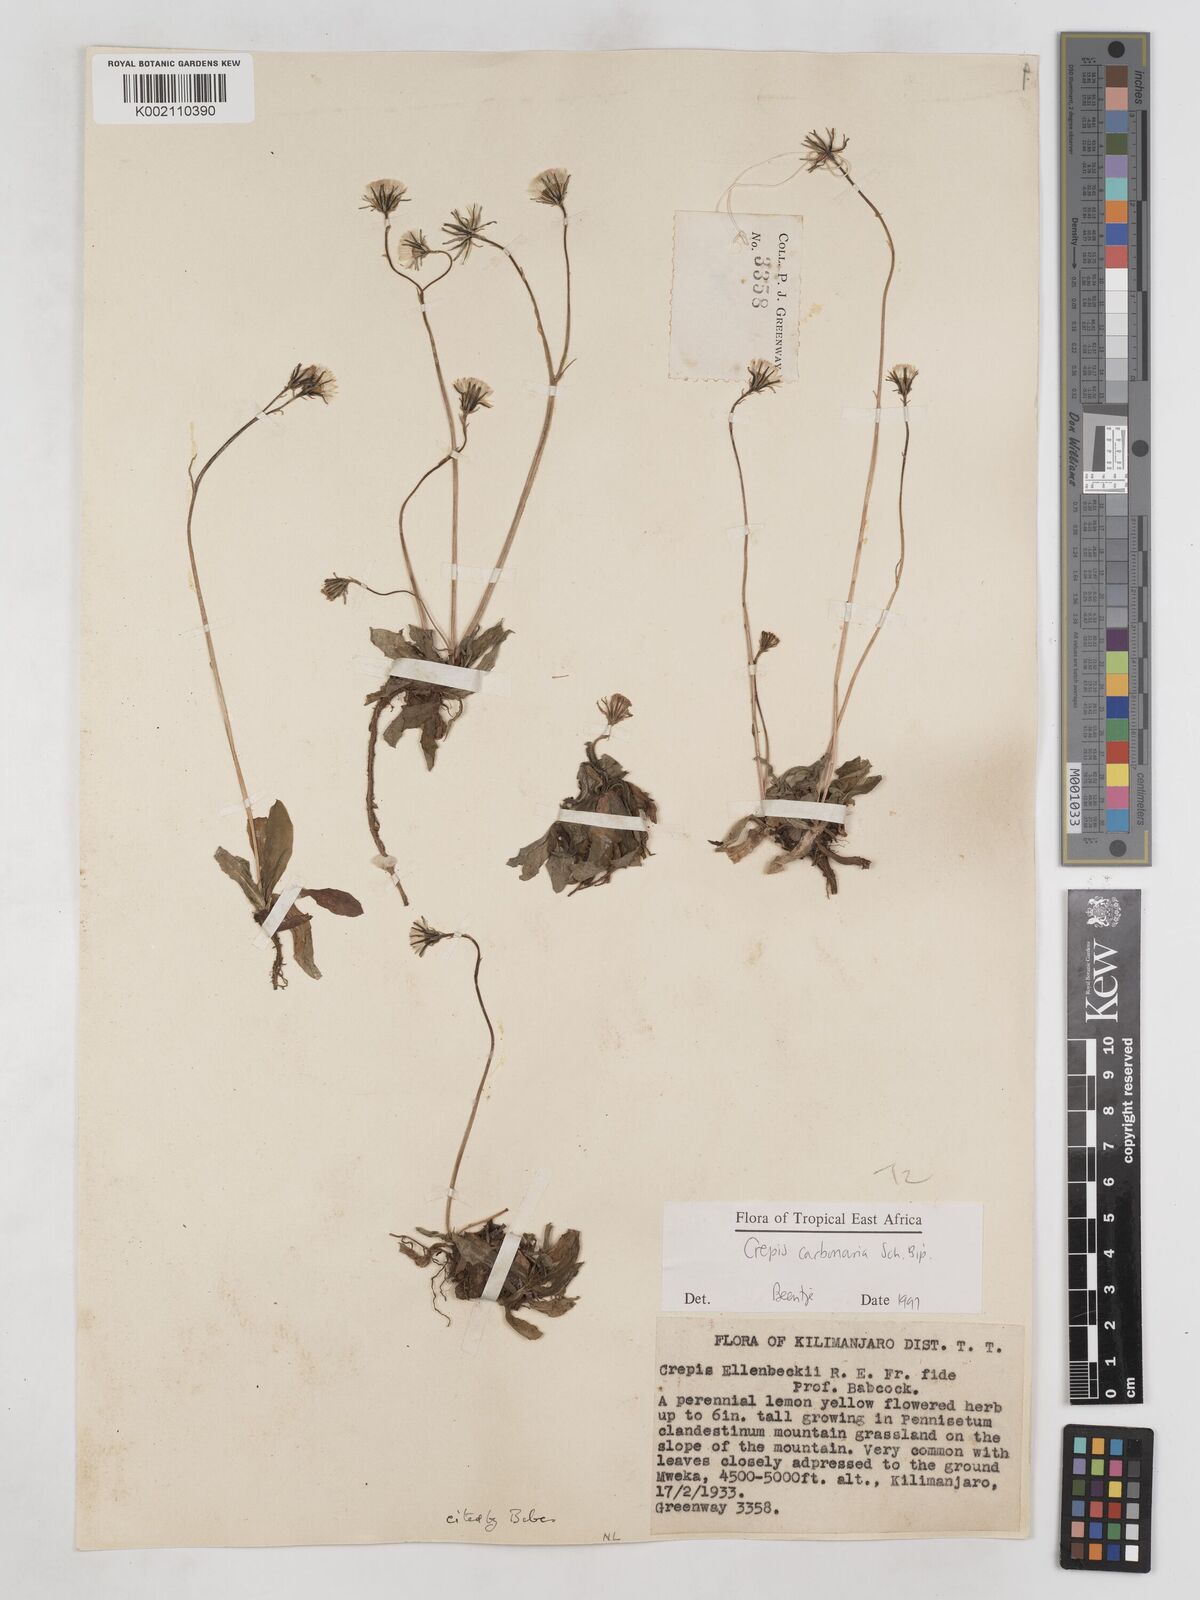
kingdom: Plantae
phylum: Tracheophyta
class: Magnoliopsida
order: Asterales
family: Asteraceae
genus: Crepis
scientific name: Crepis carbonaria
